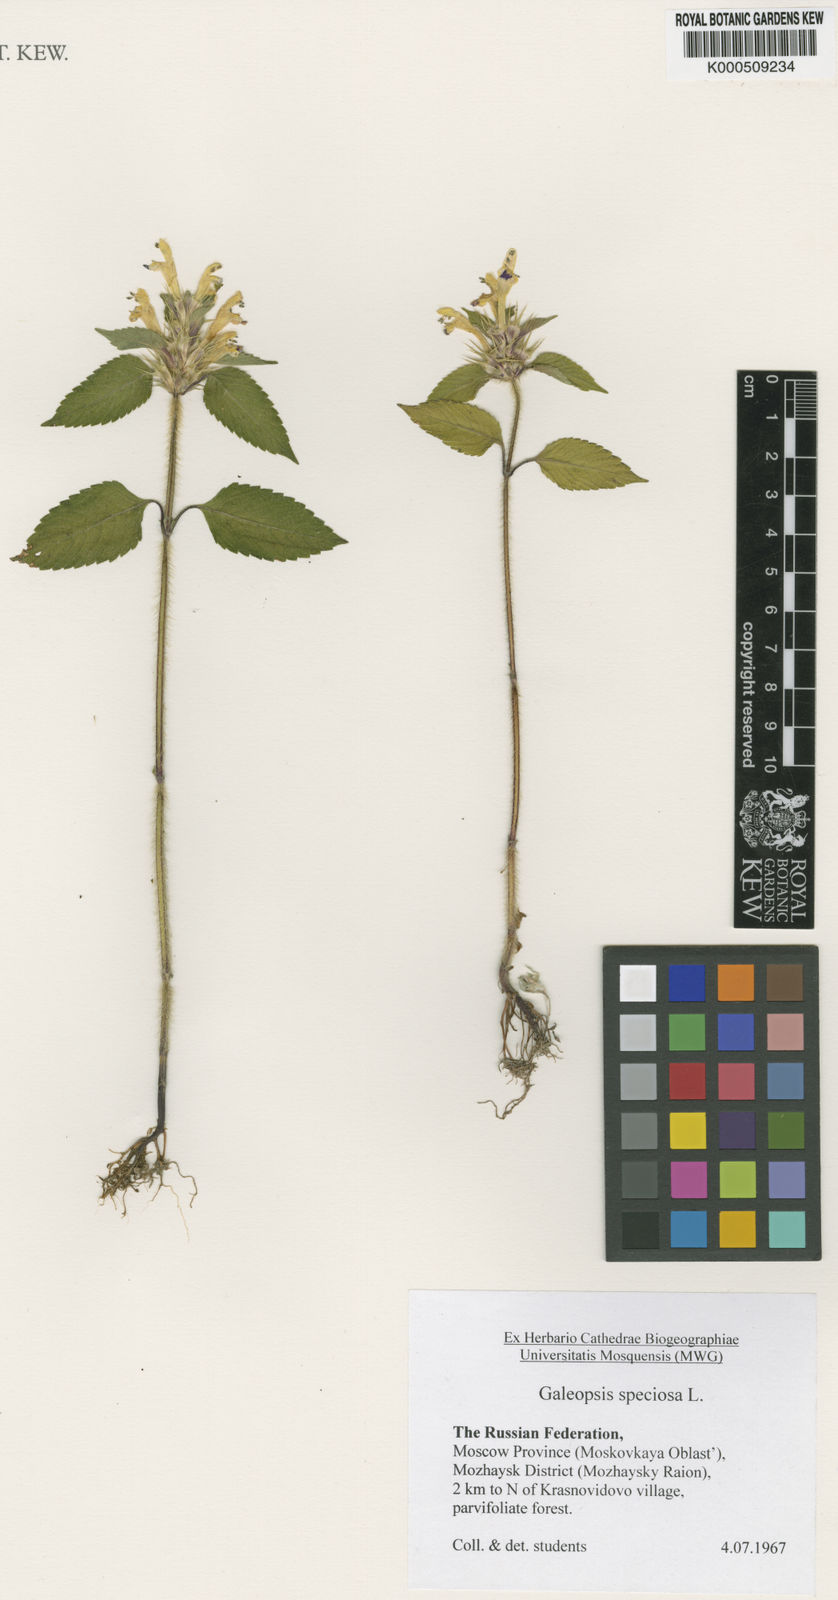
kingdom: Plantae
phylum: Tracheophyta
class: Magnoliopsida
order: Lamiales
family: Lamiaceae
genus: Galeopsis
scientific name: Galeopsis speciosa
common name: Large-flowered hemp-nettle
